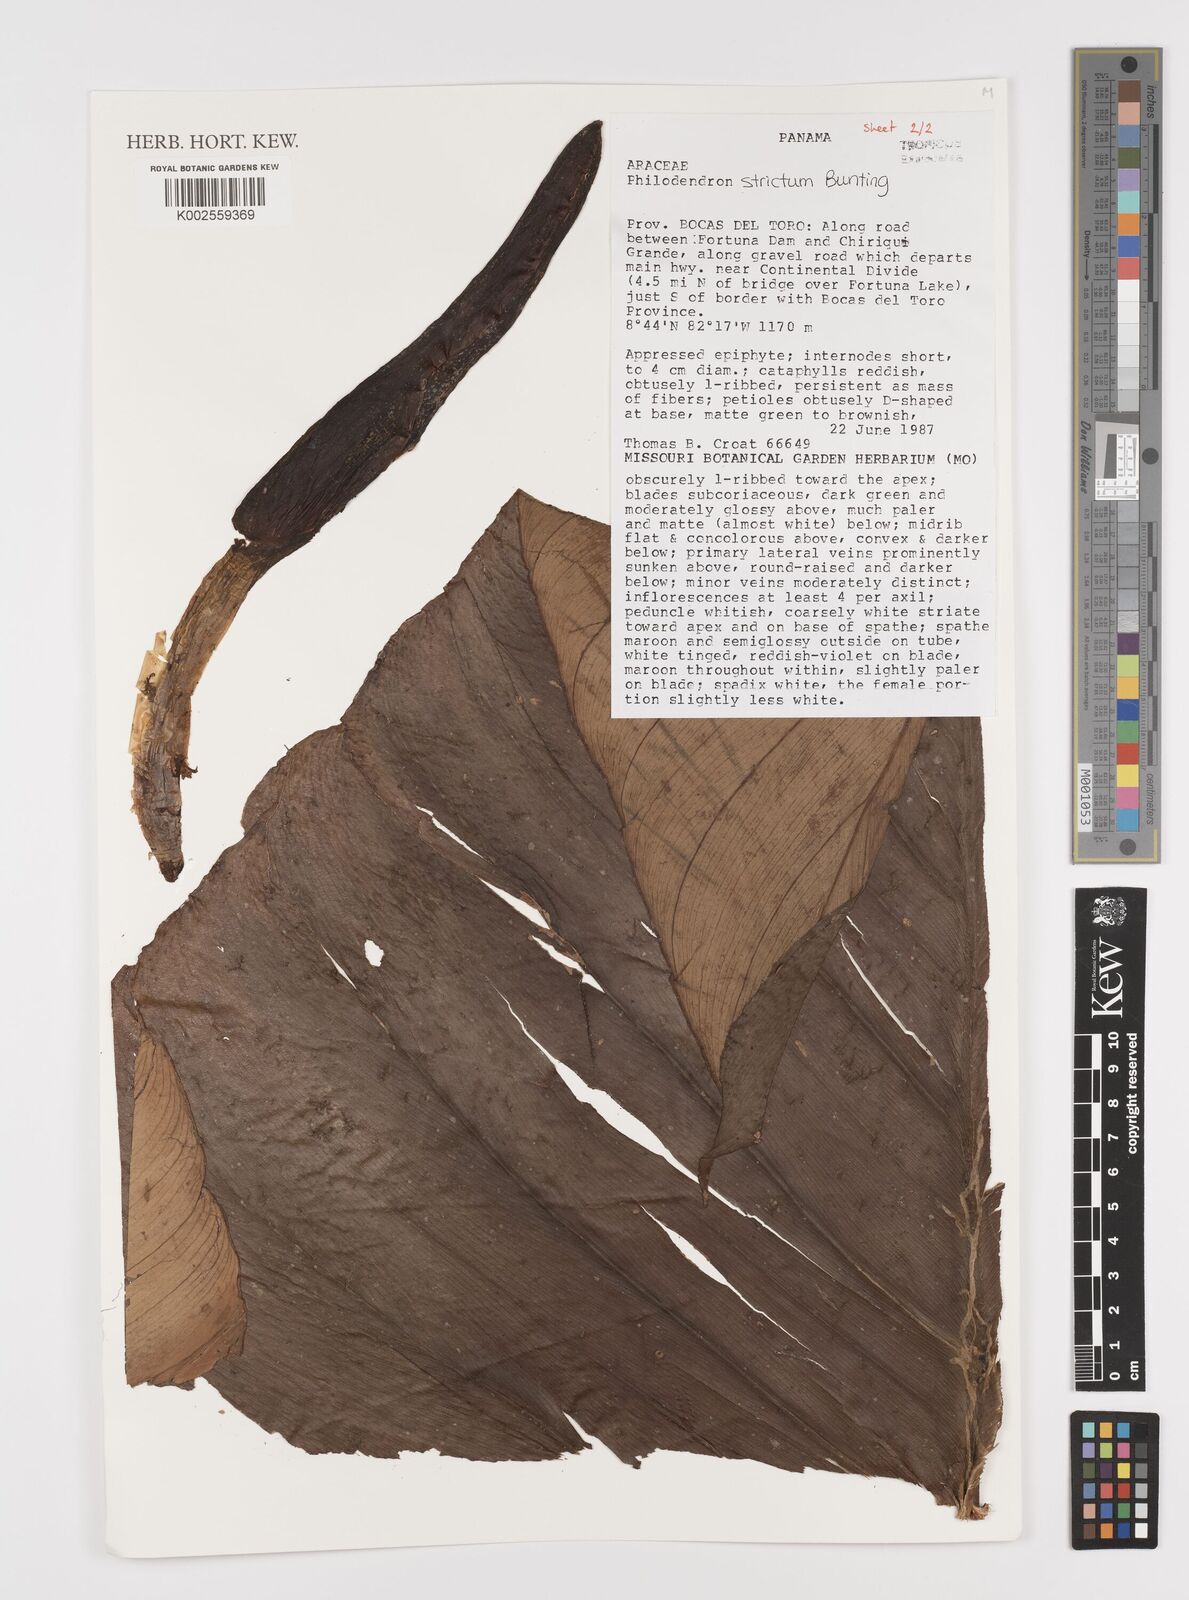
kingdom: Plantae
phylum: Tracheophyta
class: Liliopsida
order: Alismatales
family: Araceae
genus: Philodendron
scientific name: Philodendron strictum
